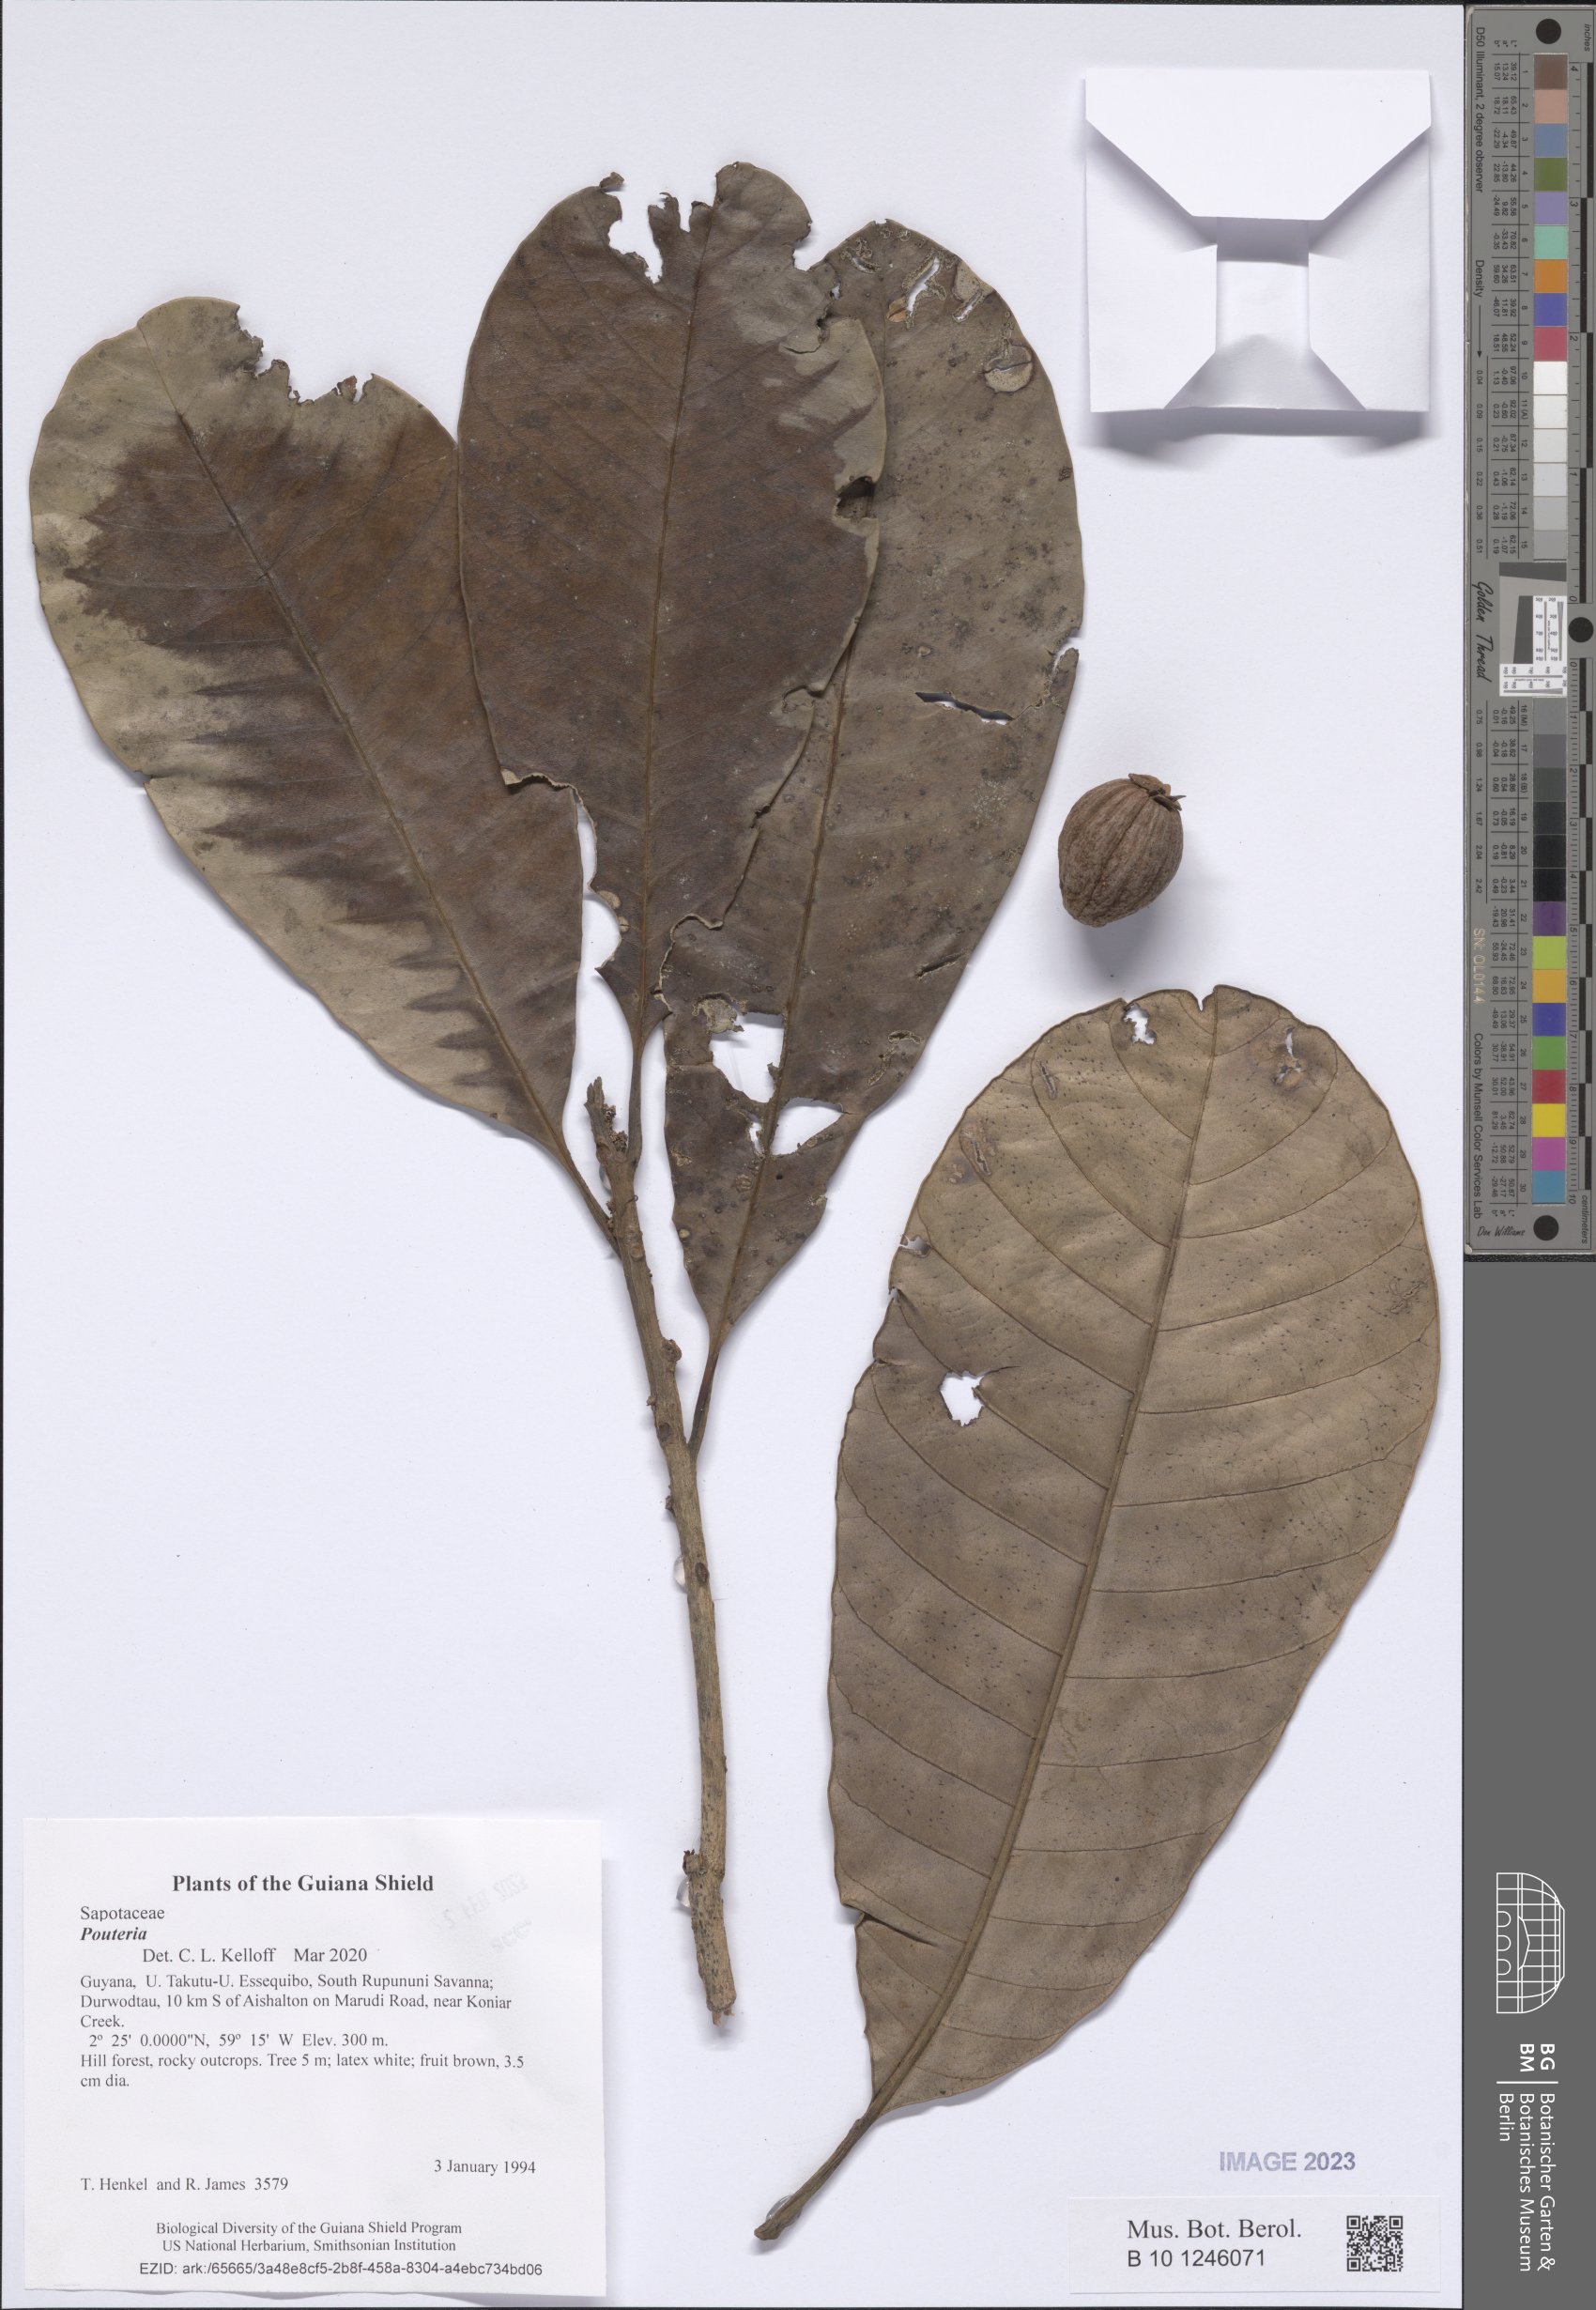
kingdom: Plantae
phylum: Tracheophyta
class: Magnoliopsida
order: Ericales
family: Sapotaceae
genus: Pouteria
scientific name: Pouteria
